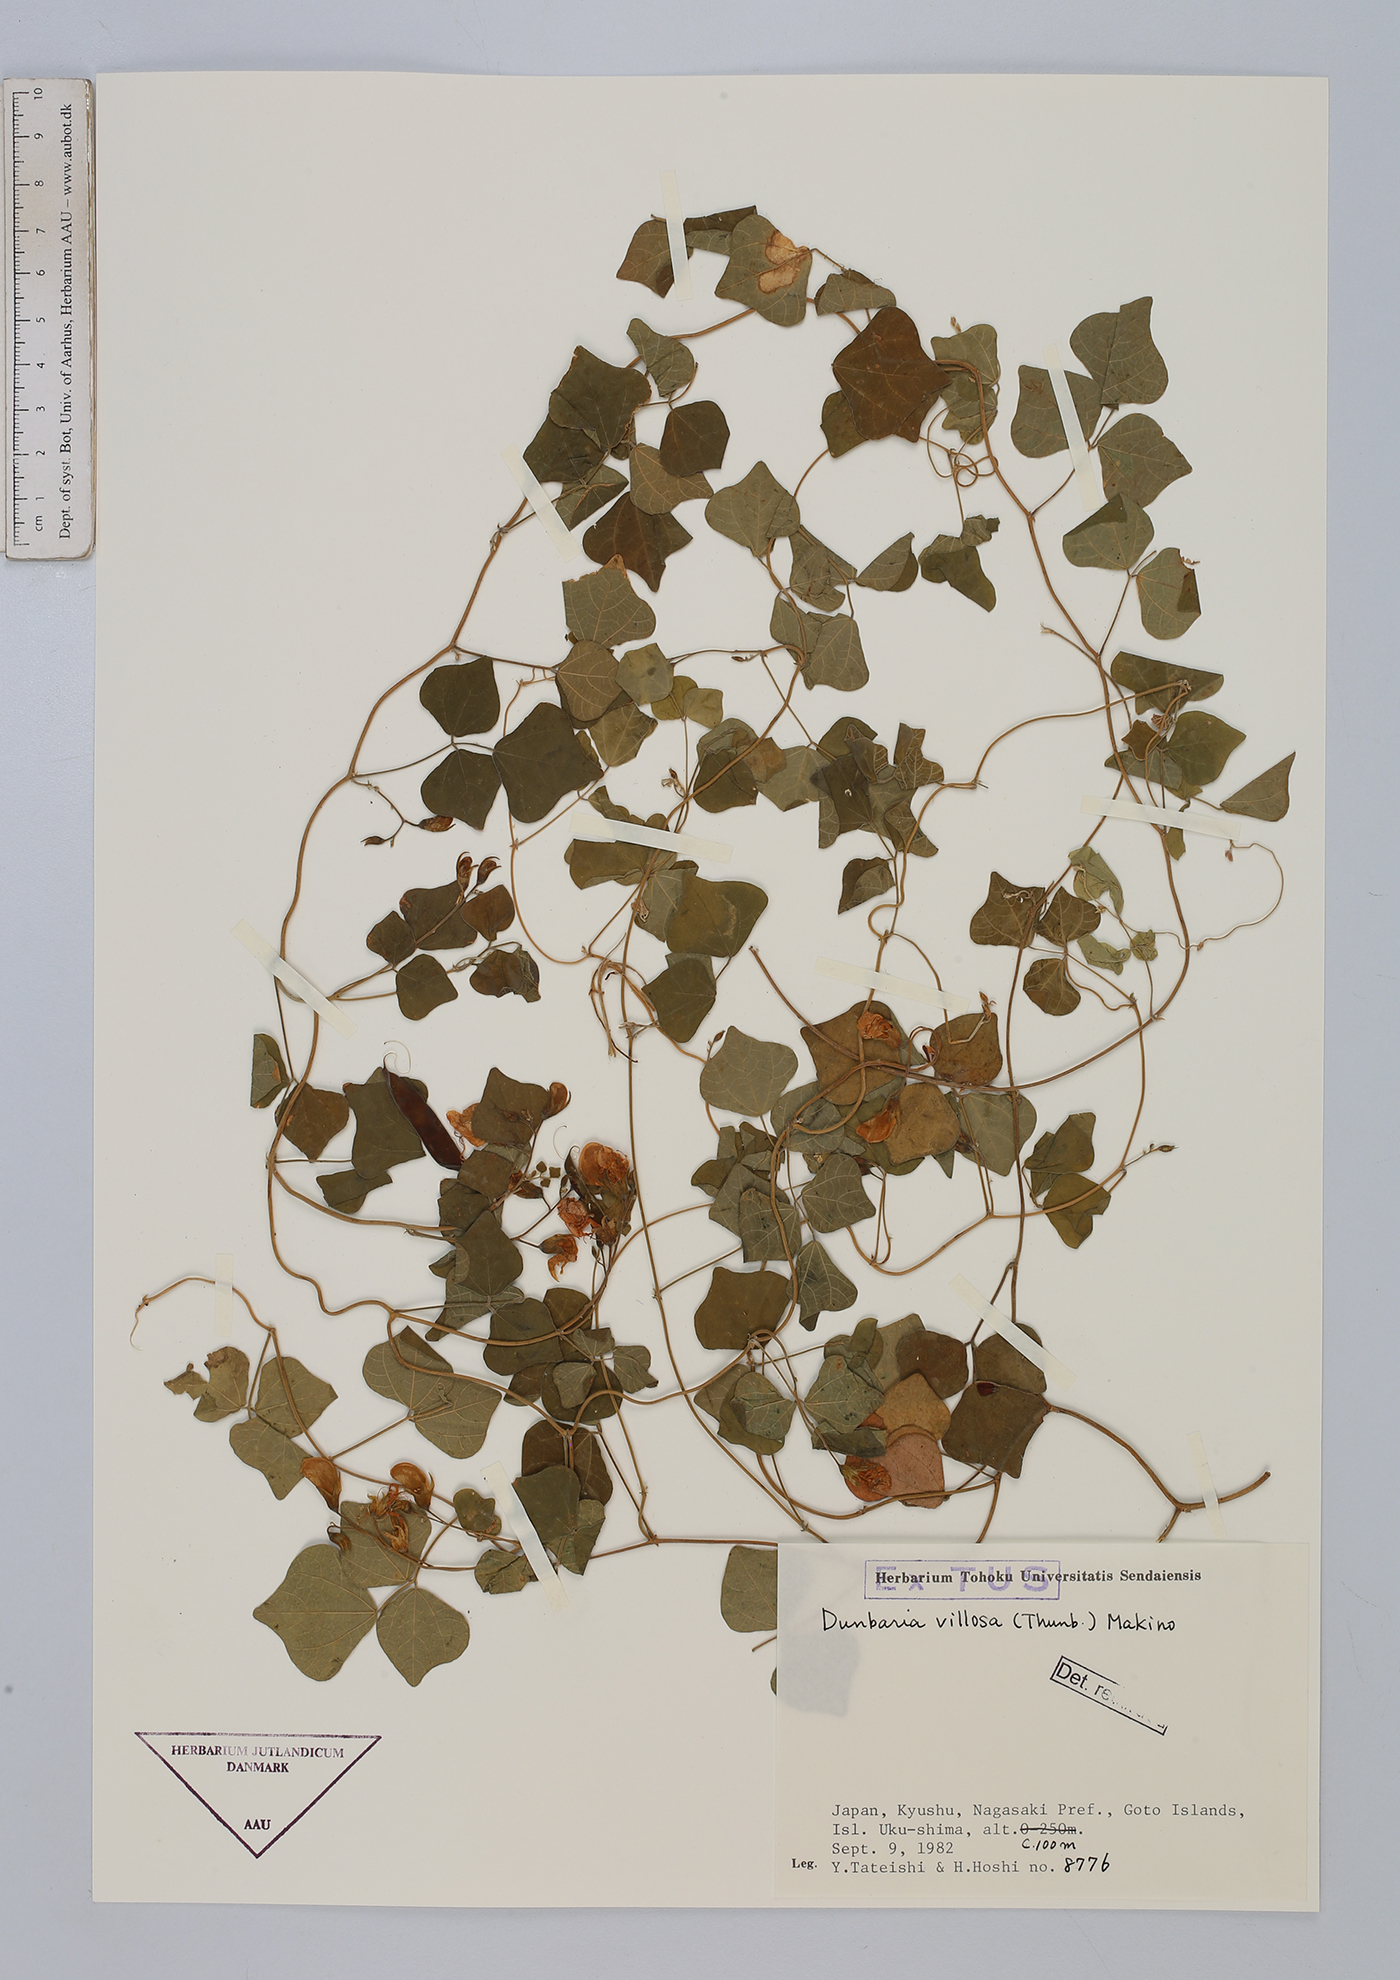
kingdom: Plantae
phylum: Tracheophyta
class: Magnoliopsida
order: Fabales
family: Fabaceae
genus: Dunbaria
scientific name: Dunbaria villosa
